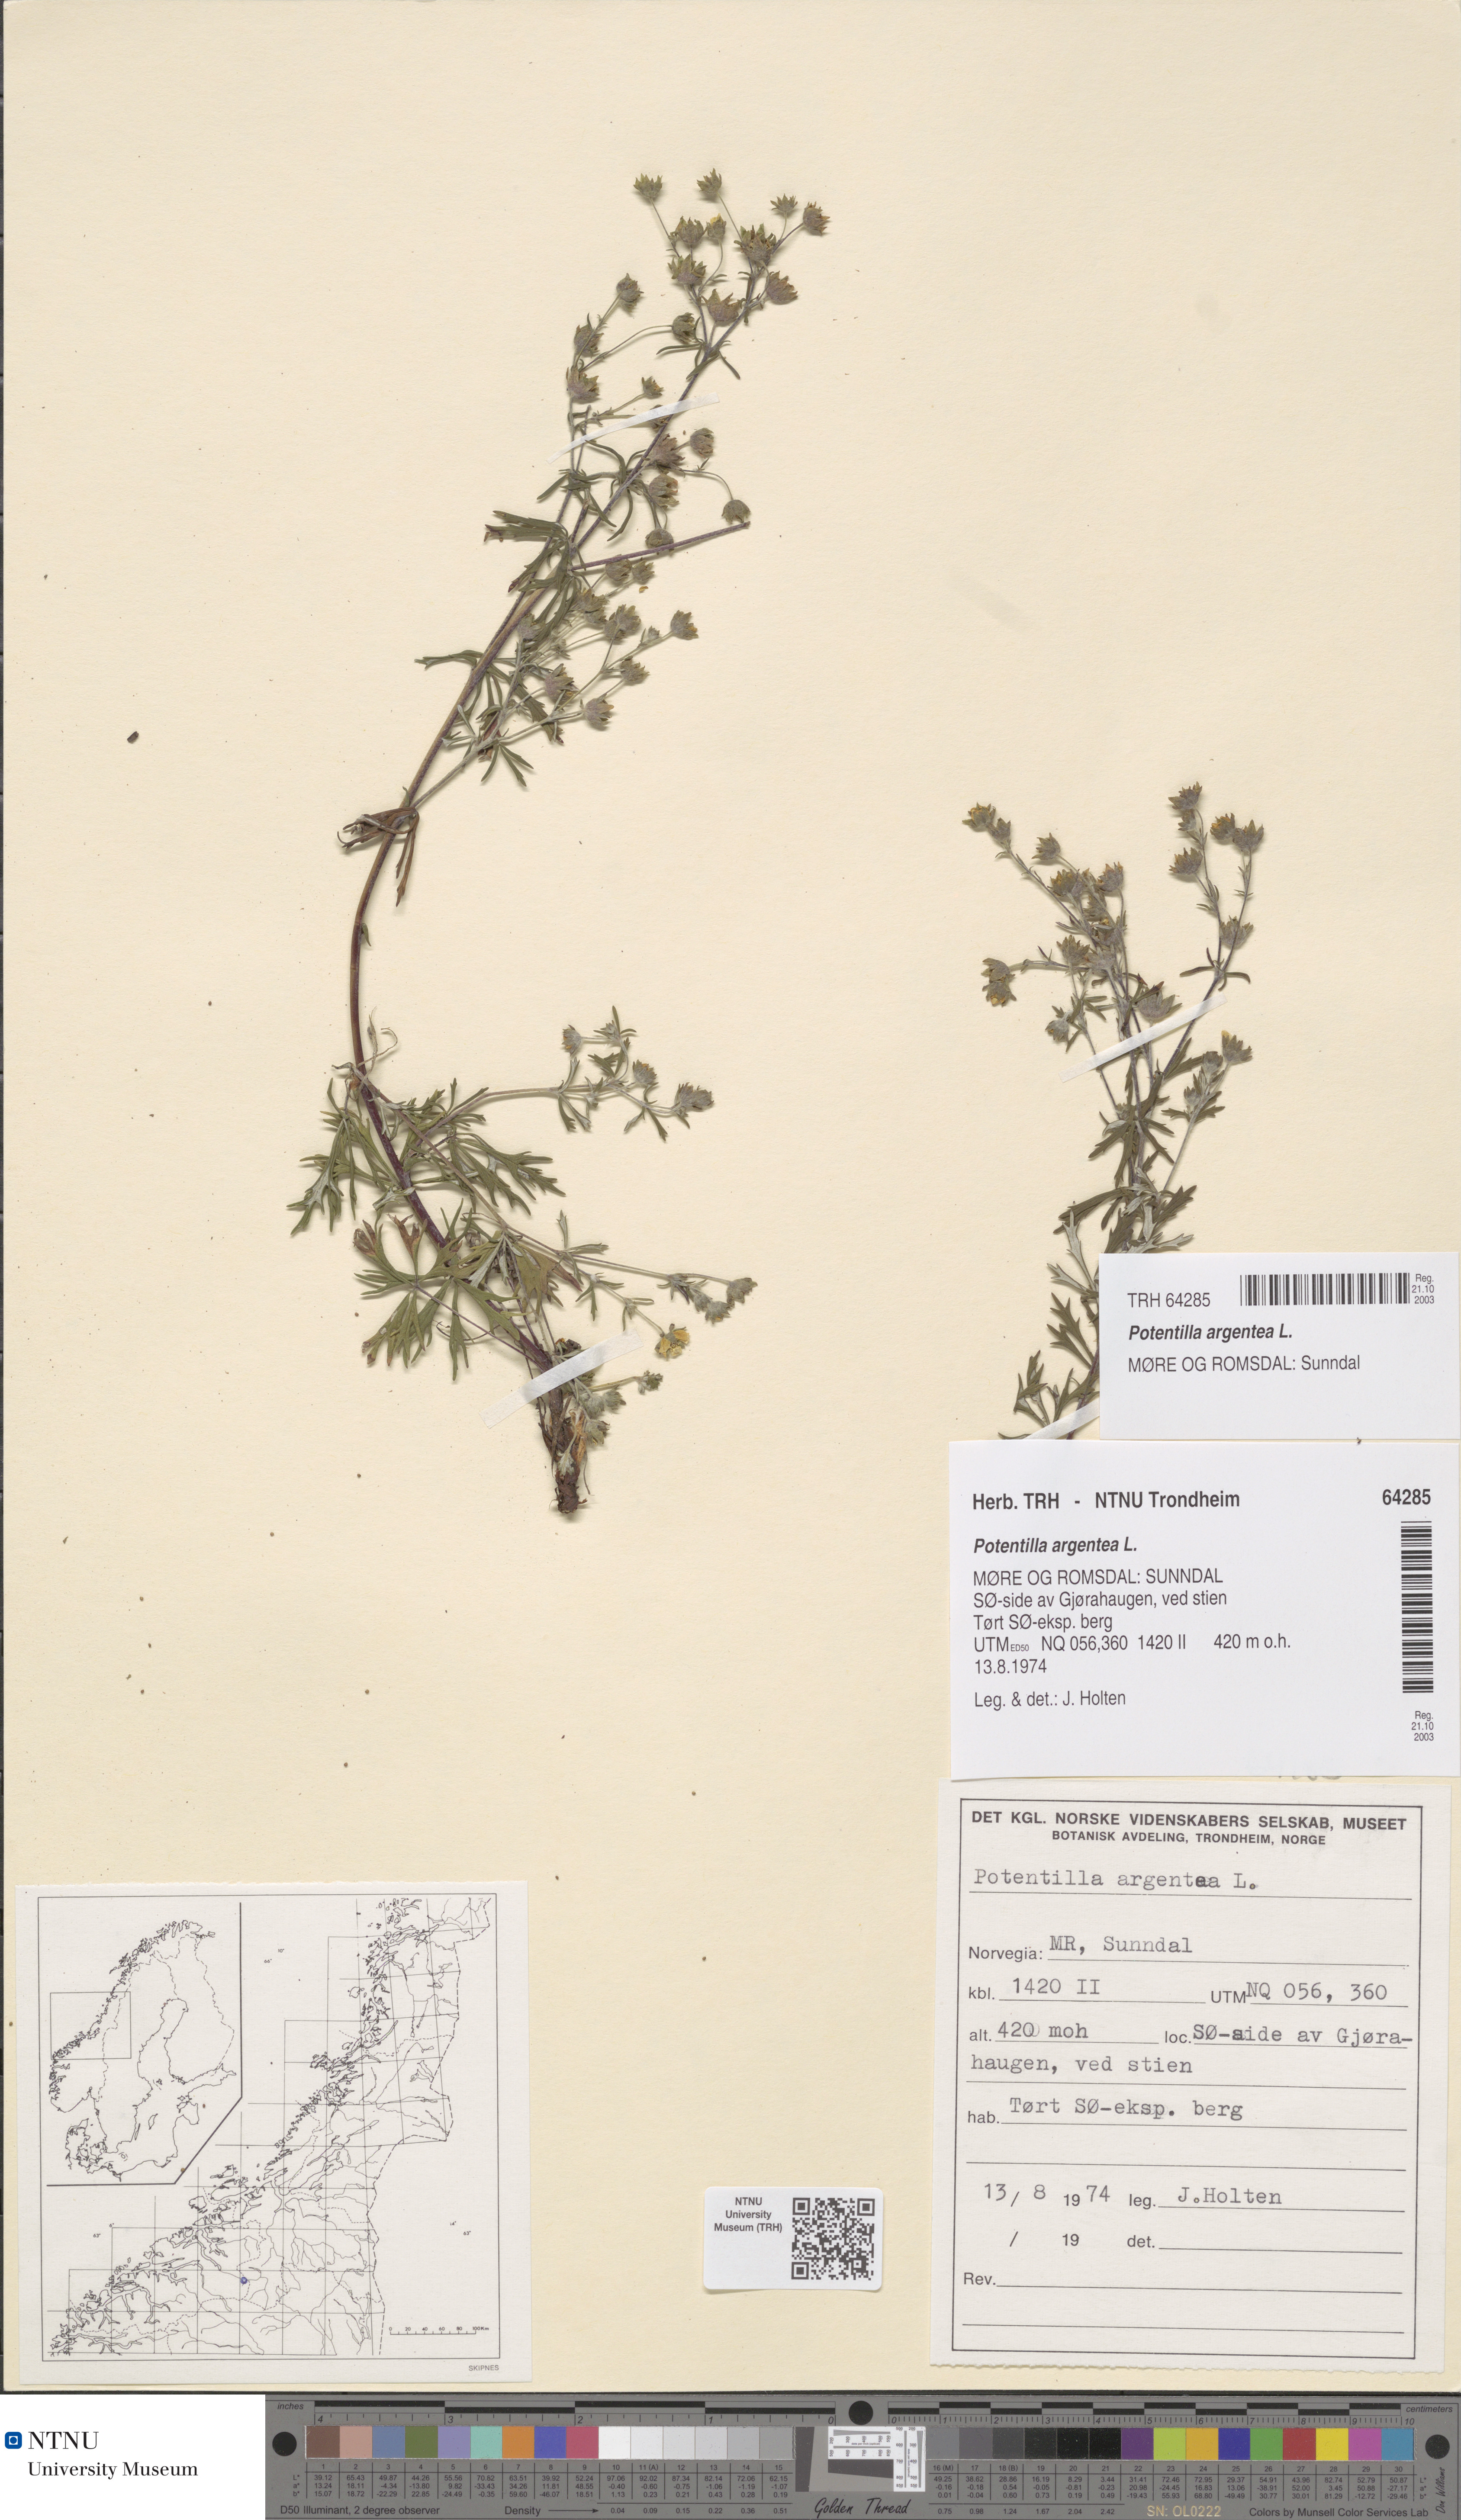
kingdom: Plantae
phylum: Tracheophyta
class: Magnoliopsida
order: Rosales
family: Rosaceae
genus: Potentilla
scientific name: Potentilla argentea
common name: Hoary cinquefoil
